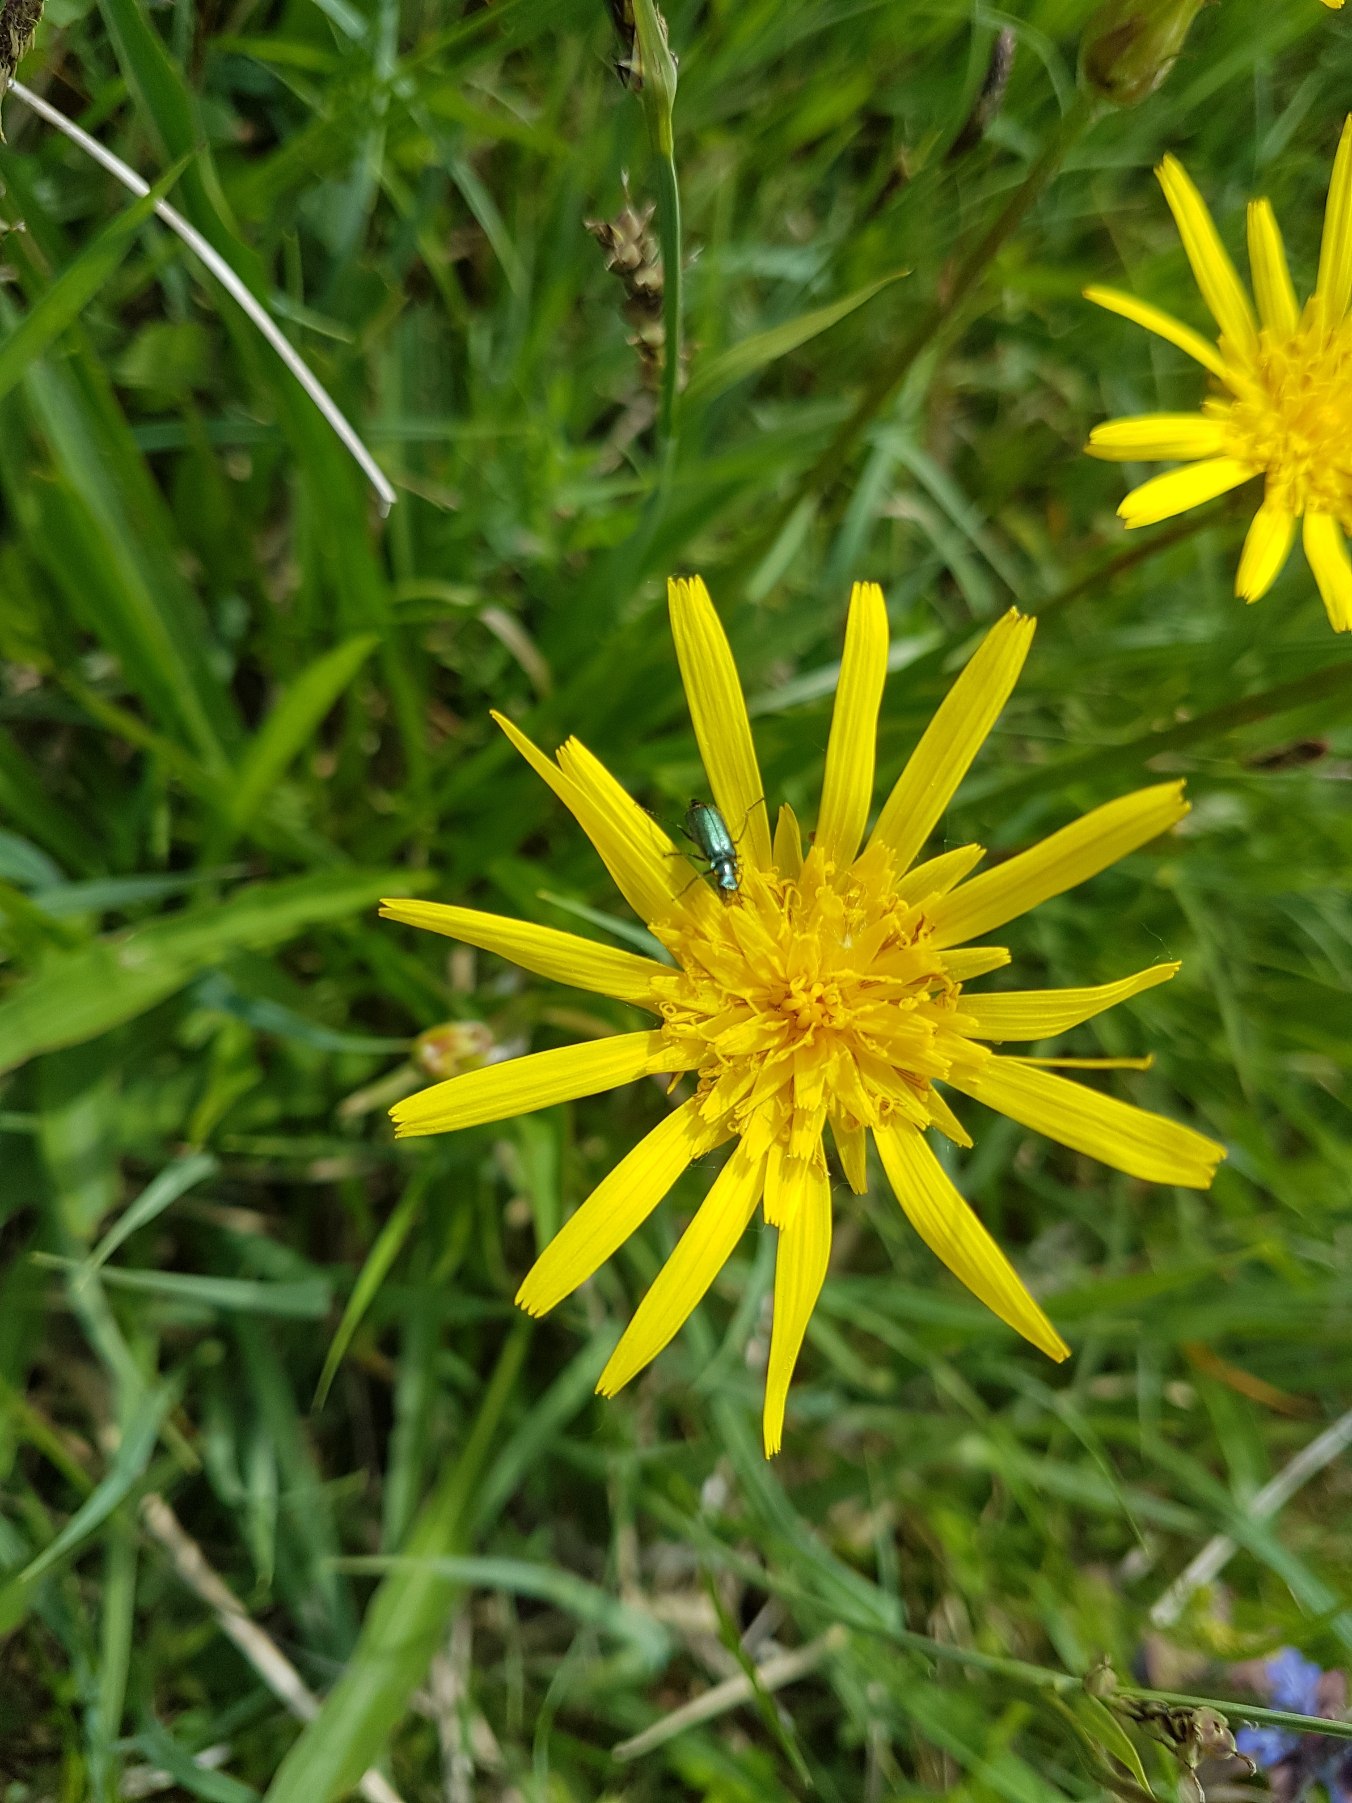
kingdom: Plantae
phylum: Tracheophyta
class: Magnoliopsida
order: Asterales
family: Asteraceae
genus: Scorzonera
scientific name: Scorzonera humilis
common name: Lav skorsoner
